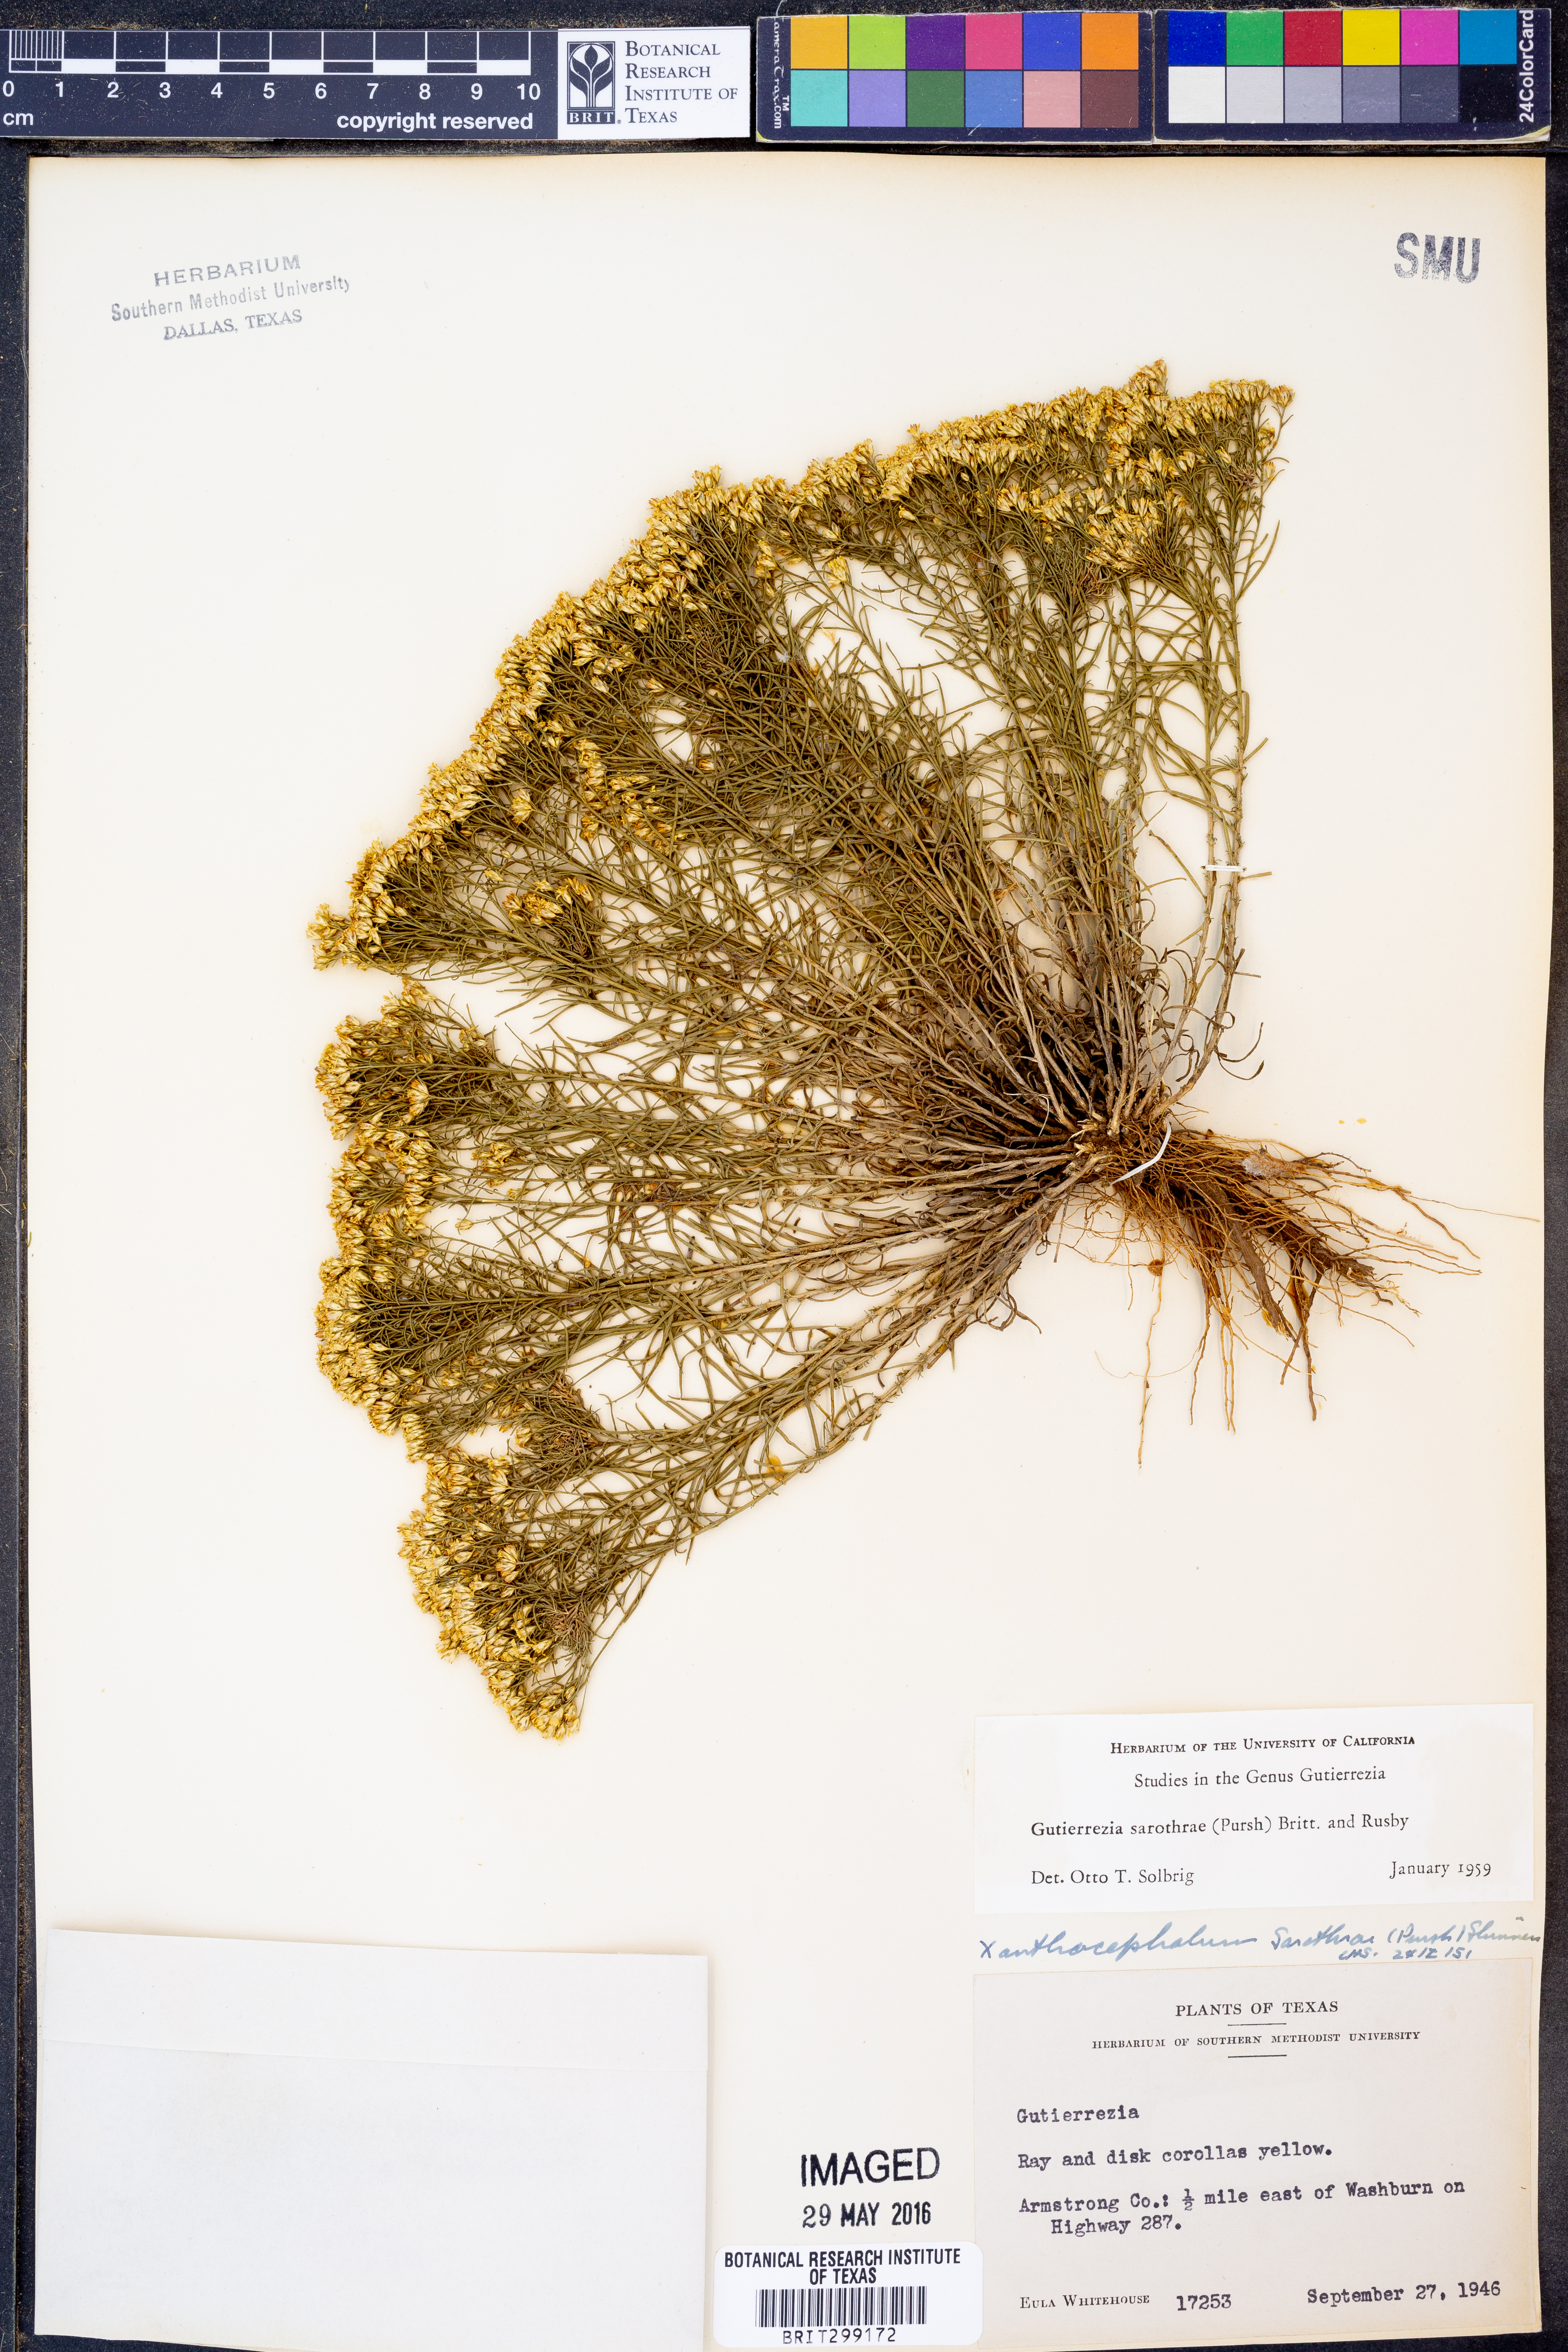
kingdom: Plantae
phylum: Tracheophyta
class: Magnoliopsida
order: Asterales
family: Asteraceae
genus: Gutierrezia
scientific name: Gutierrezia sarothrae
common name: Broom snakeweed
